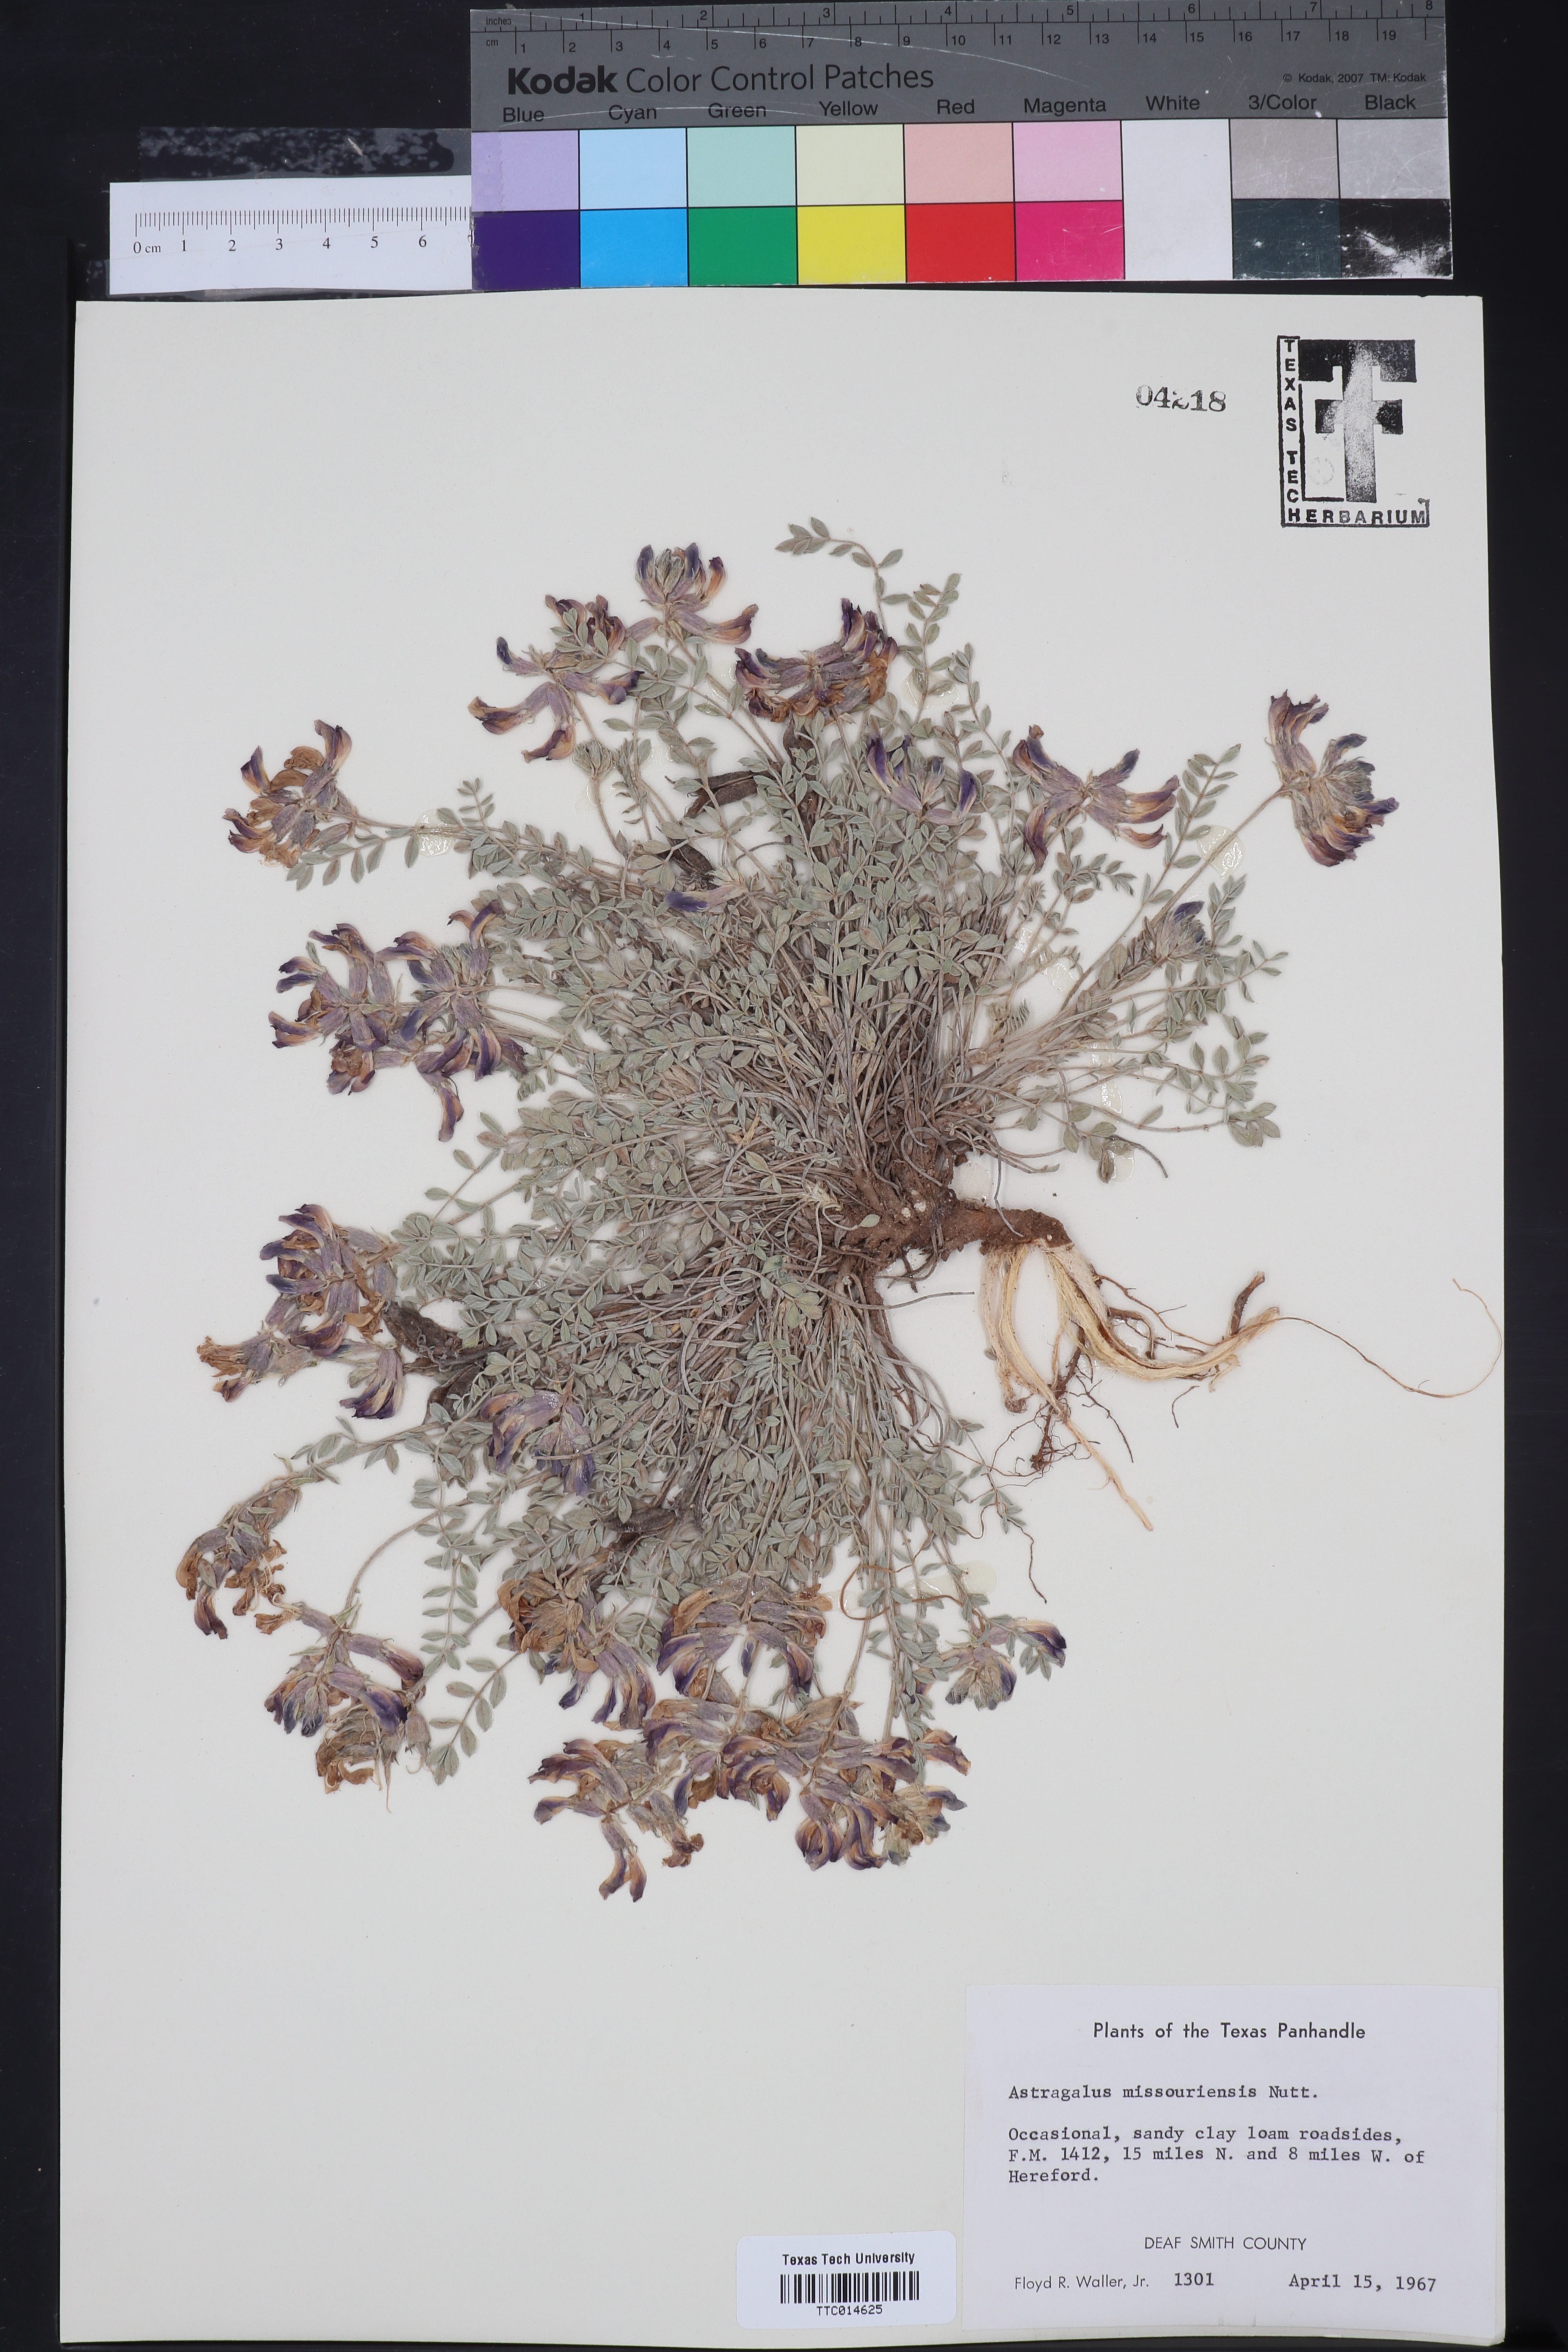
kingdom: Plantae
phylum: Tracheophyta
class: Magnoliopsida
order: Fabales
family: Fabaceae
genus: Astragalus
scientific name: Astragalus missouriensis
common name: Missouri milk-vetch
